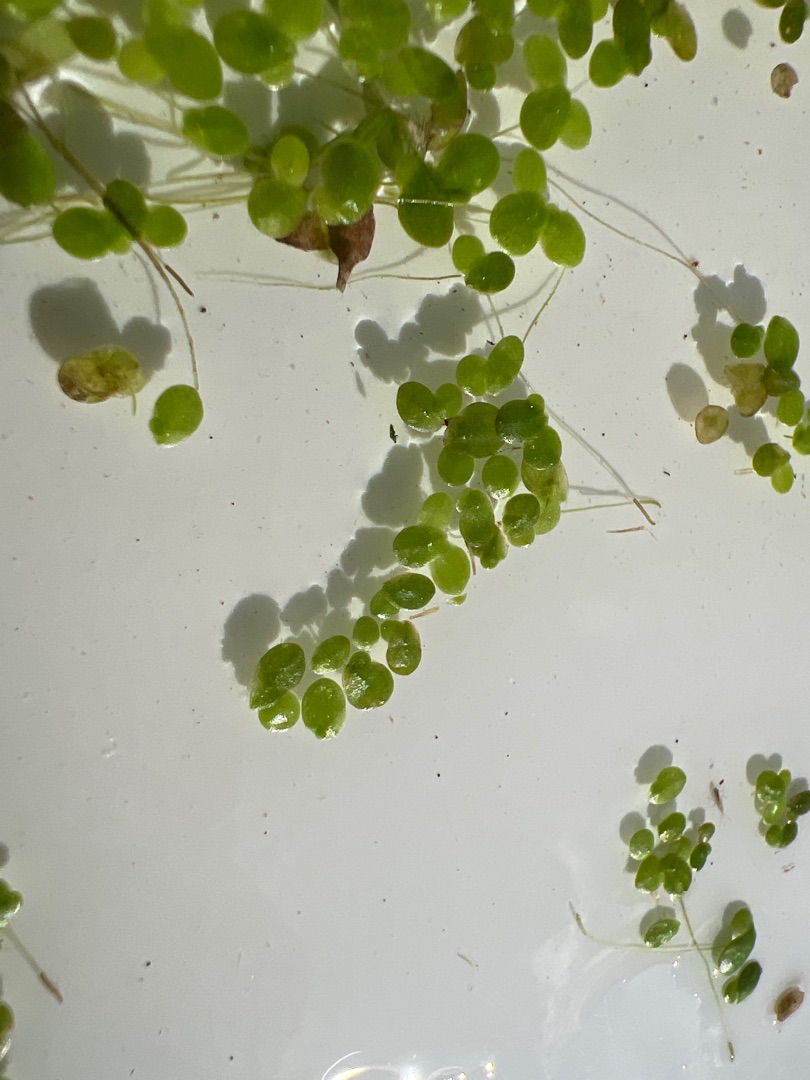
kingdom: Plantae
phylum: Tracheophyta
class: Liliopsida
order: Alismatales
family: Araceae
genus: Lemna
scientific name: Lemna minor
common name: Liden andemad
